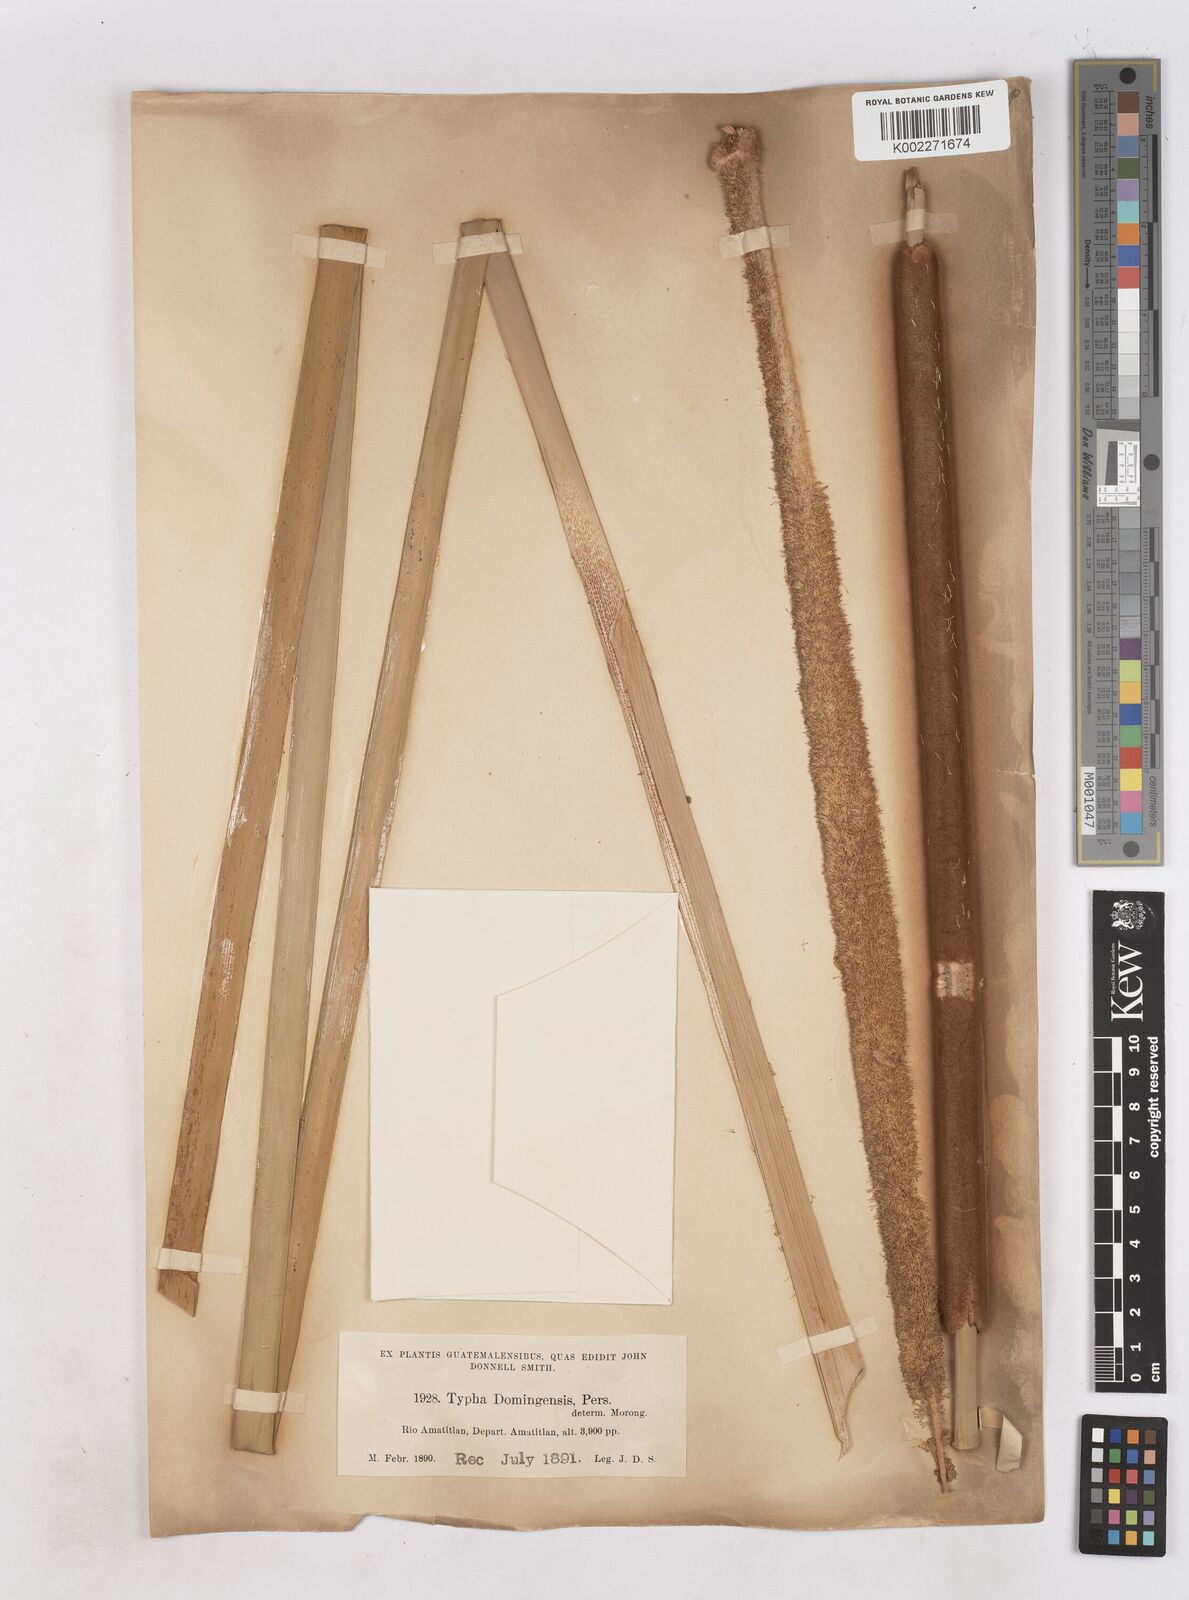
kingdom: Plantae
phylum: Tracheophyta
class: Liliopsida
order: Poales
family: Typhaceae
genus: Typha
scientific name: Typha domingensis
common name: Southern cattail
